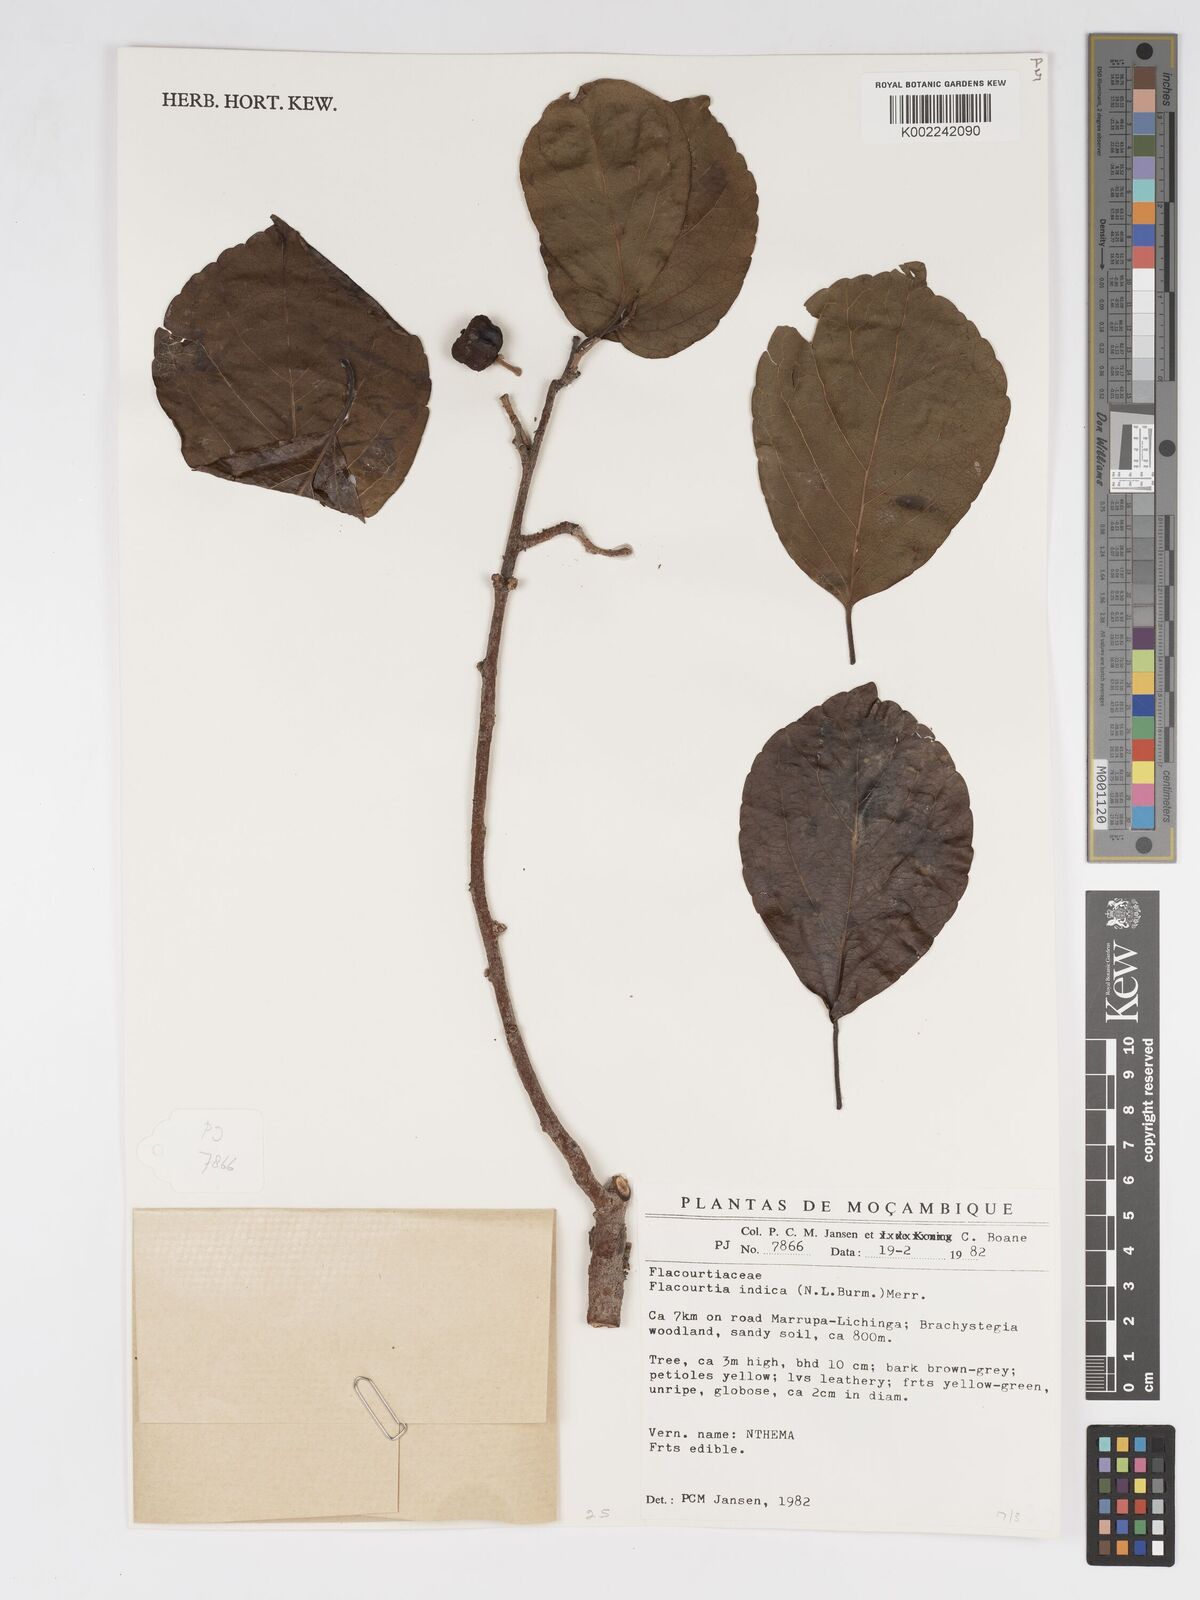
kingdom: Plantae
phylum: Tracheophyta
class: Magnoliopsida
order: Malpighiales
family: Salicaceae
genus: Flacourtia
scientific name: Flacourtia indica
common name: Governor's plum
